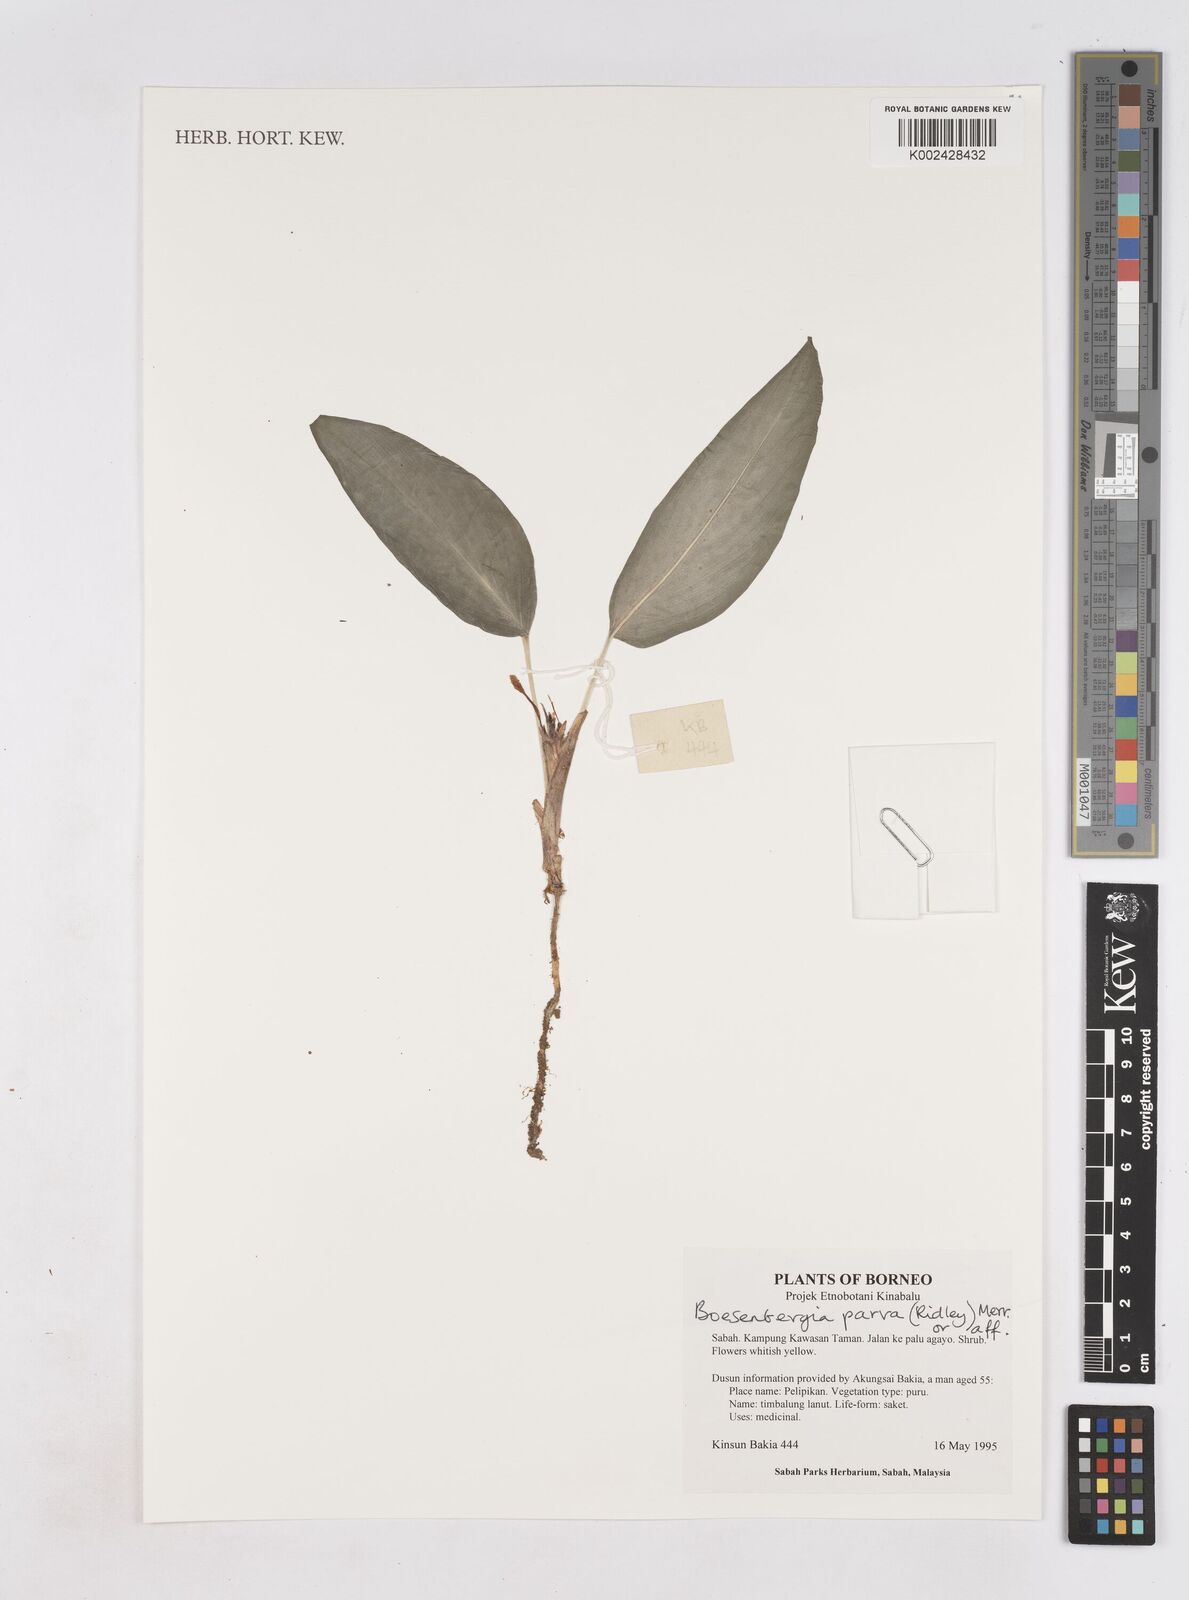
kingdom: Plantae
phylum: Tracheophyta
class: Liliopsida
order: Zingiberales
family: Zingiberaceae
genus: Boesenbergia
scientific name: Boesenbergia parva
